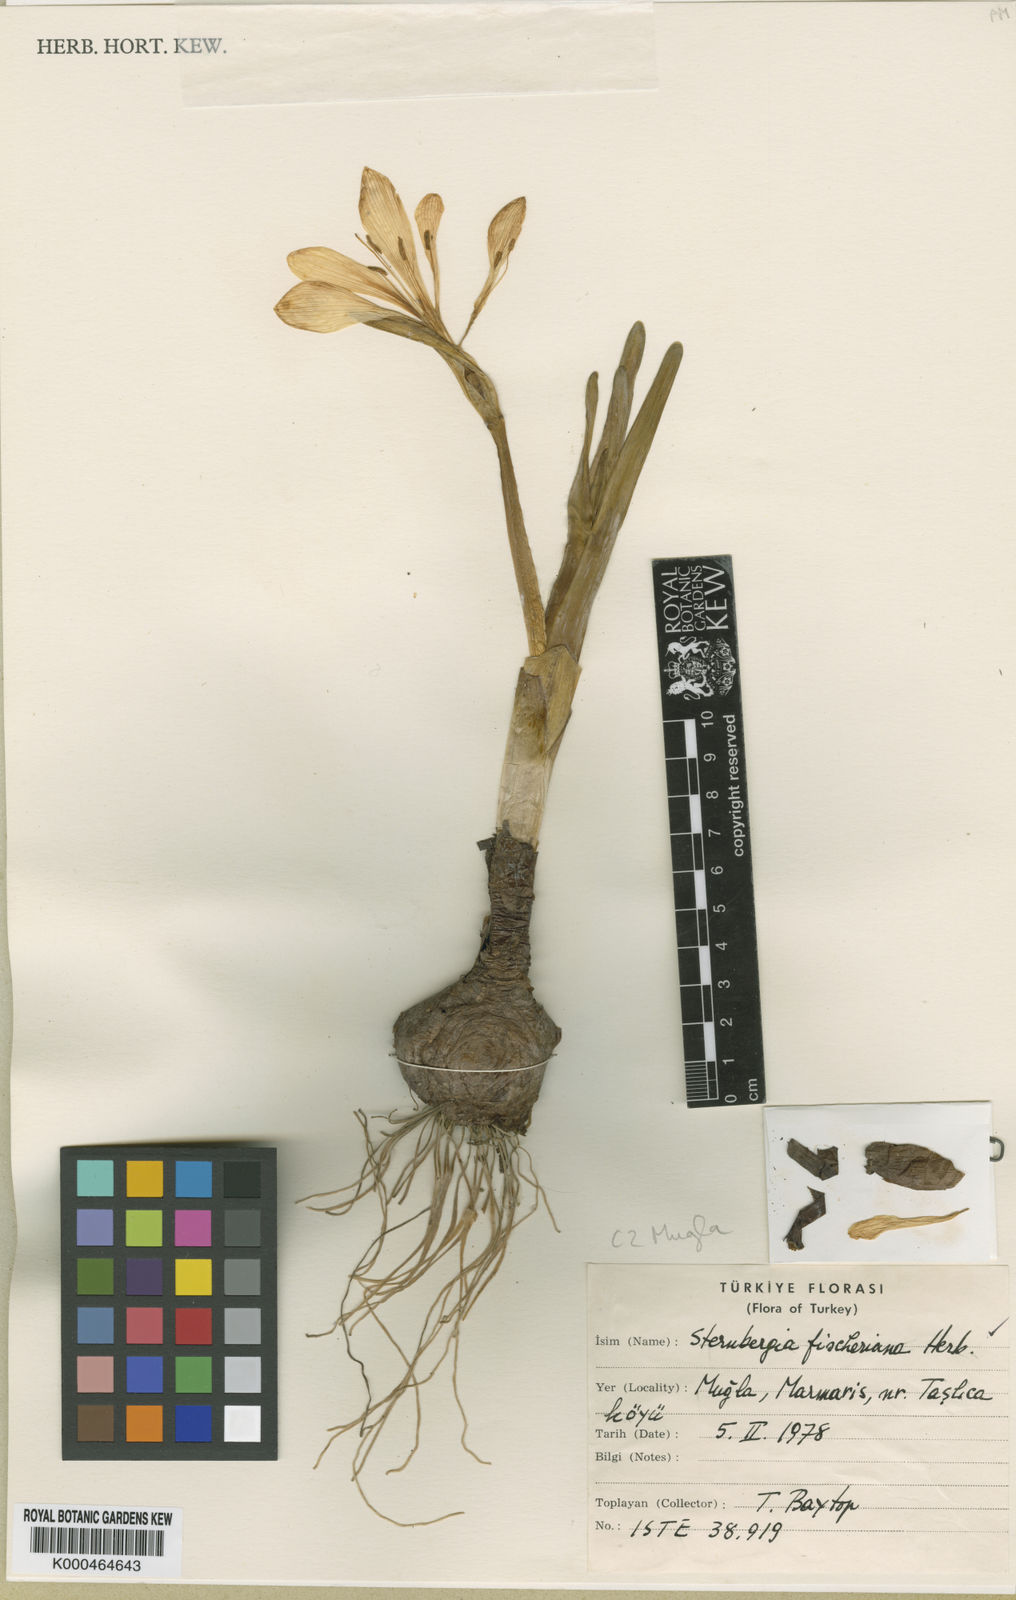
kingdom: Plantae
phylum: Tracheophyta
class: Liliopsida
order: Asparagales
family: Amaryllidaceae
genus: Sternbergia
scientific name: Sternbergia
